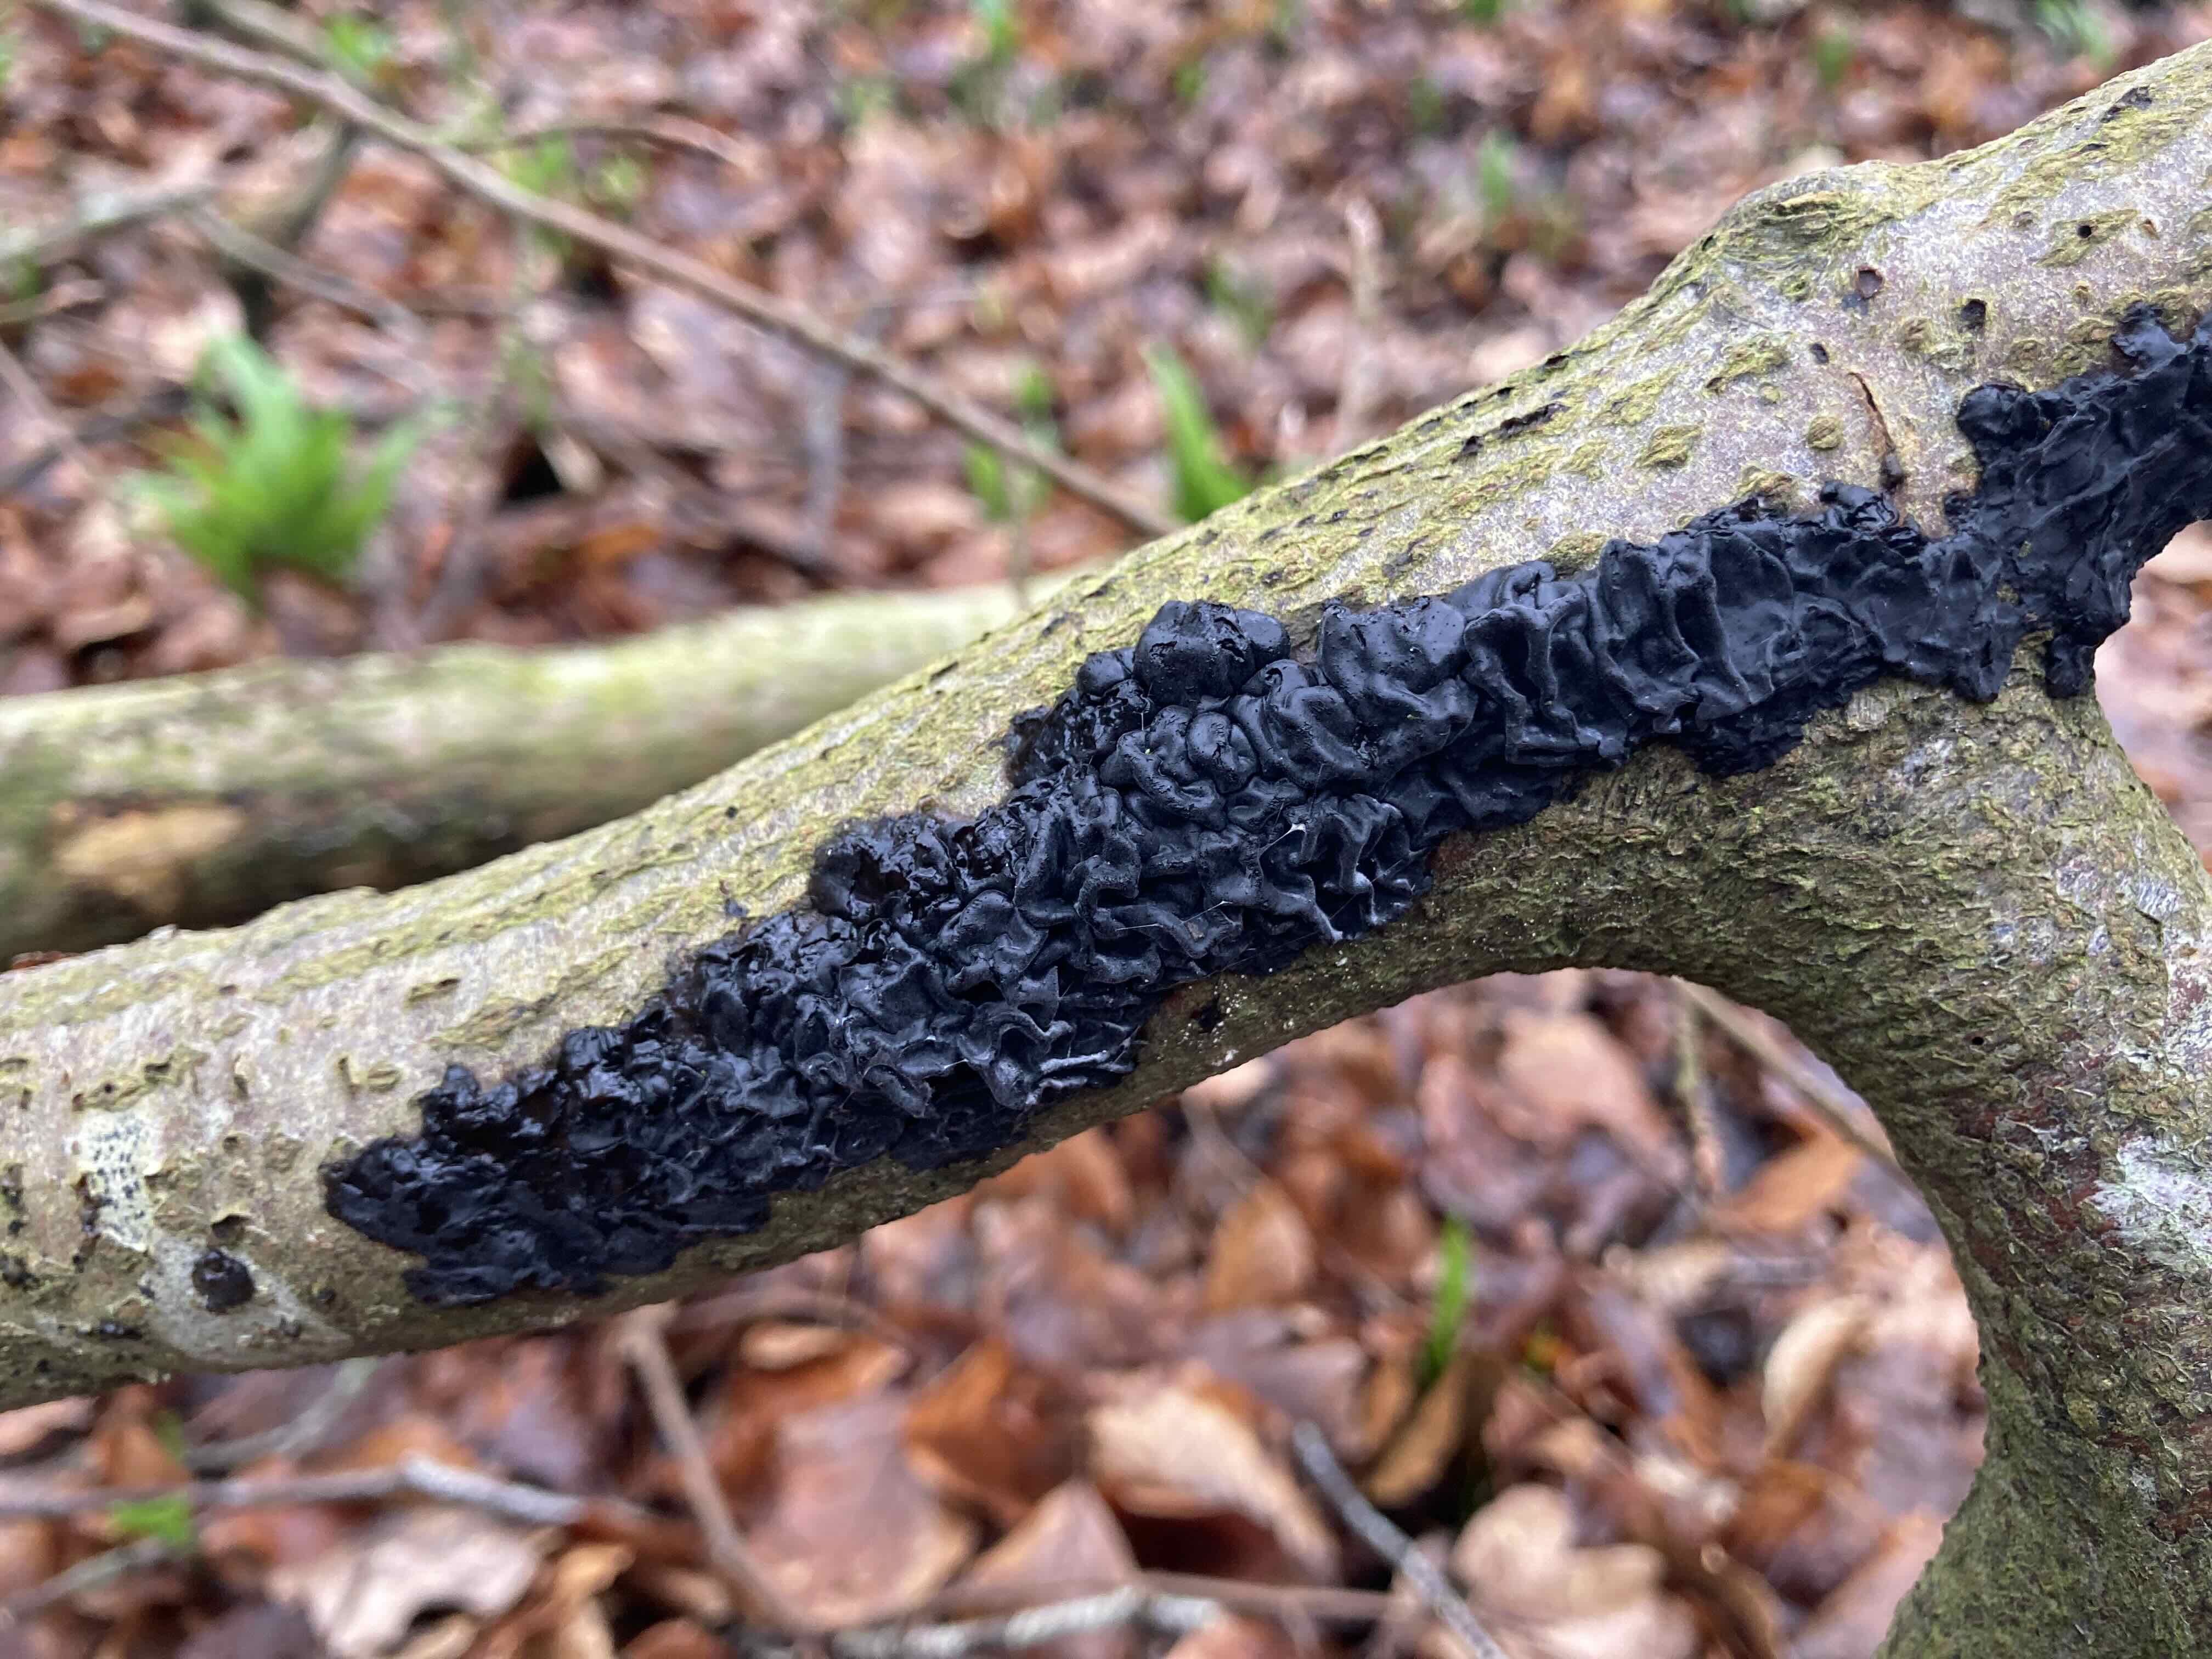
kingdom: Fungi
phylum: Basidiomycota
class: Agaricomycetes
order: Auriculariales
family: Auriculariaceae
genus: Exidia
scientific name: Exidia nigricans
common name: almindelig bævretop
